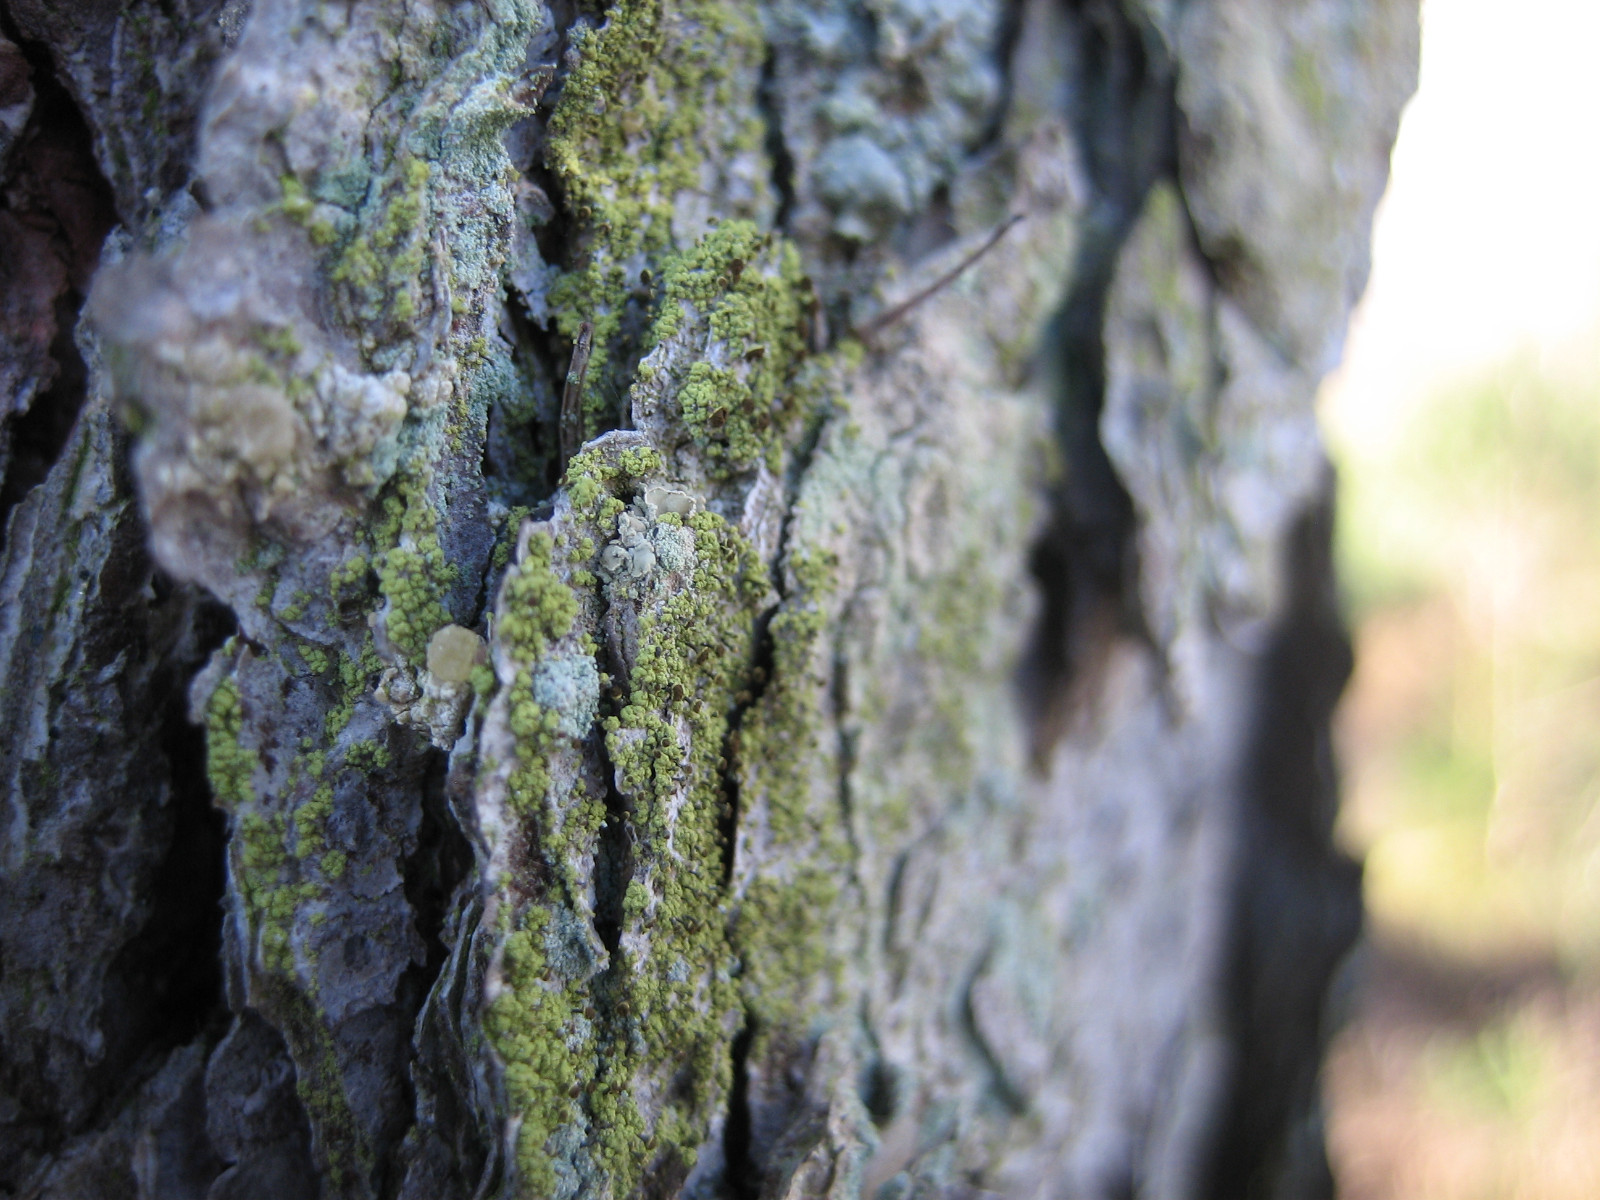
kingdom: Fungi
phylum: Ascomycota
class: Coniocybomycetes
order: Coniocybales
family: Coniocybaceae
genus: Chaenotheca
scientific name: Chaenotheca chrysocephala
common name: citrongul knappenålslav
